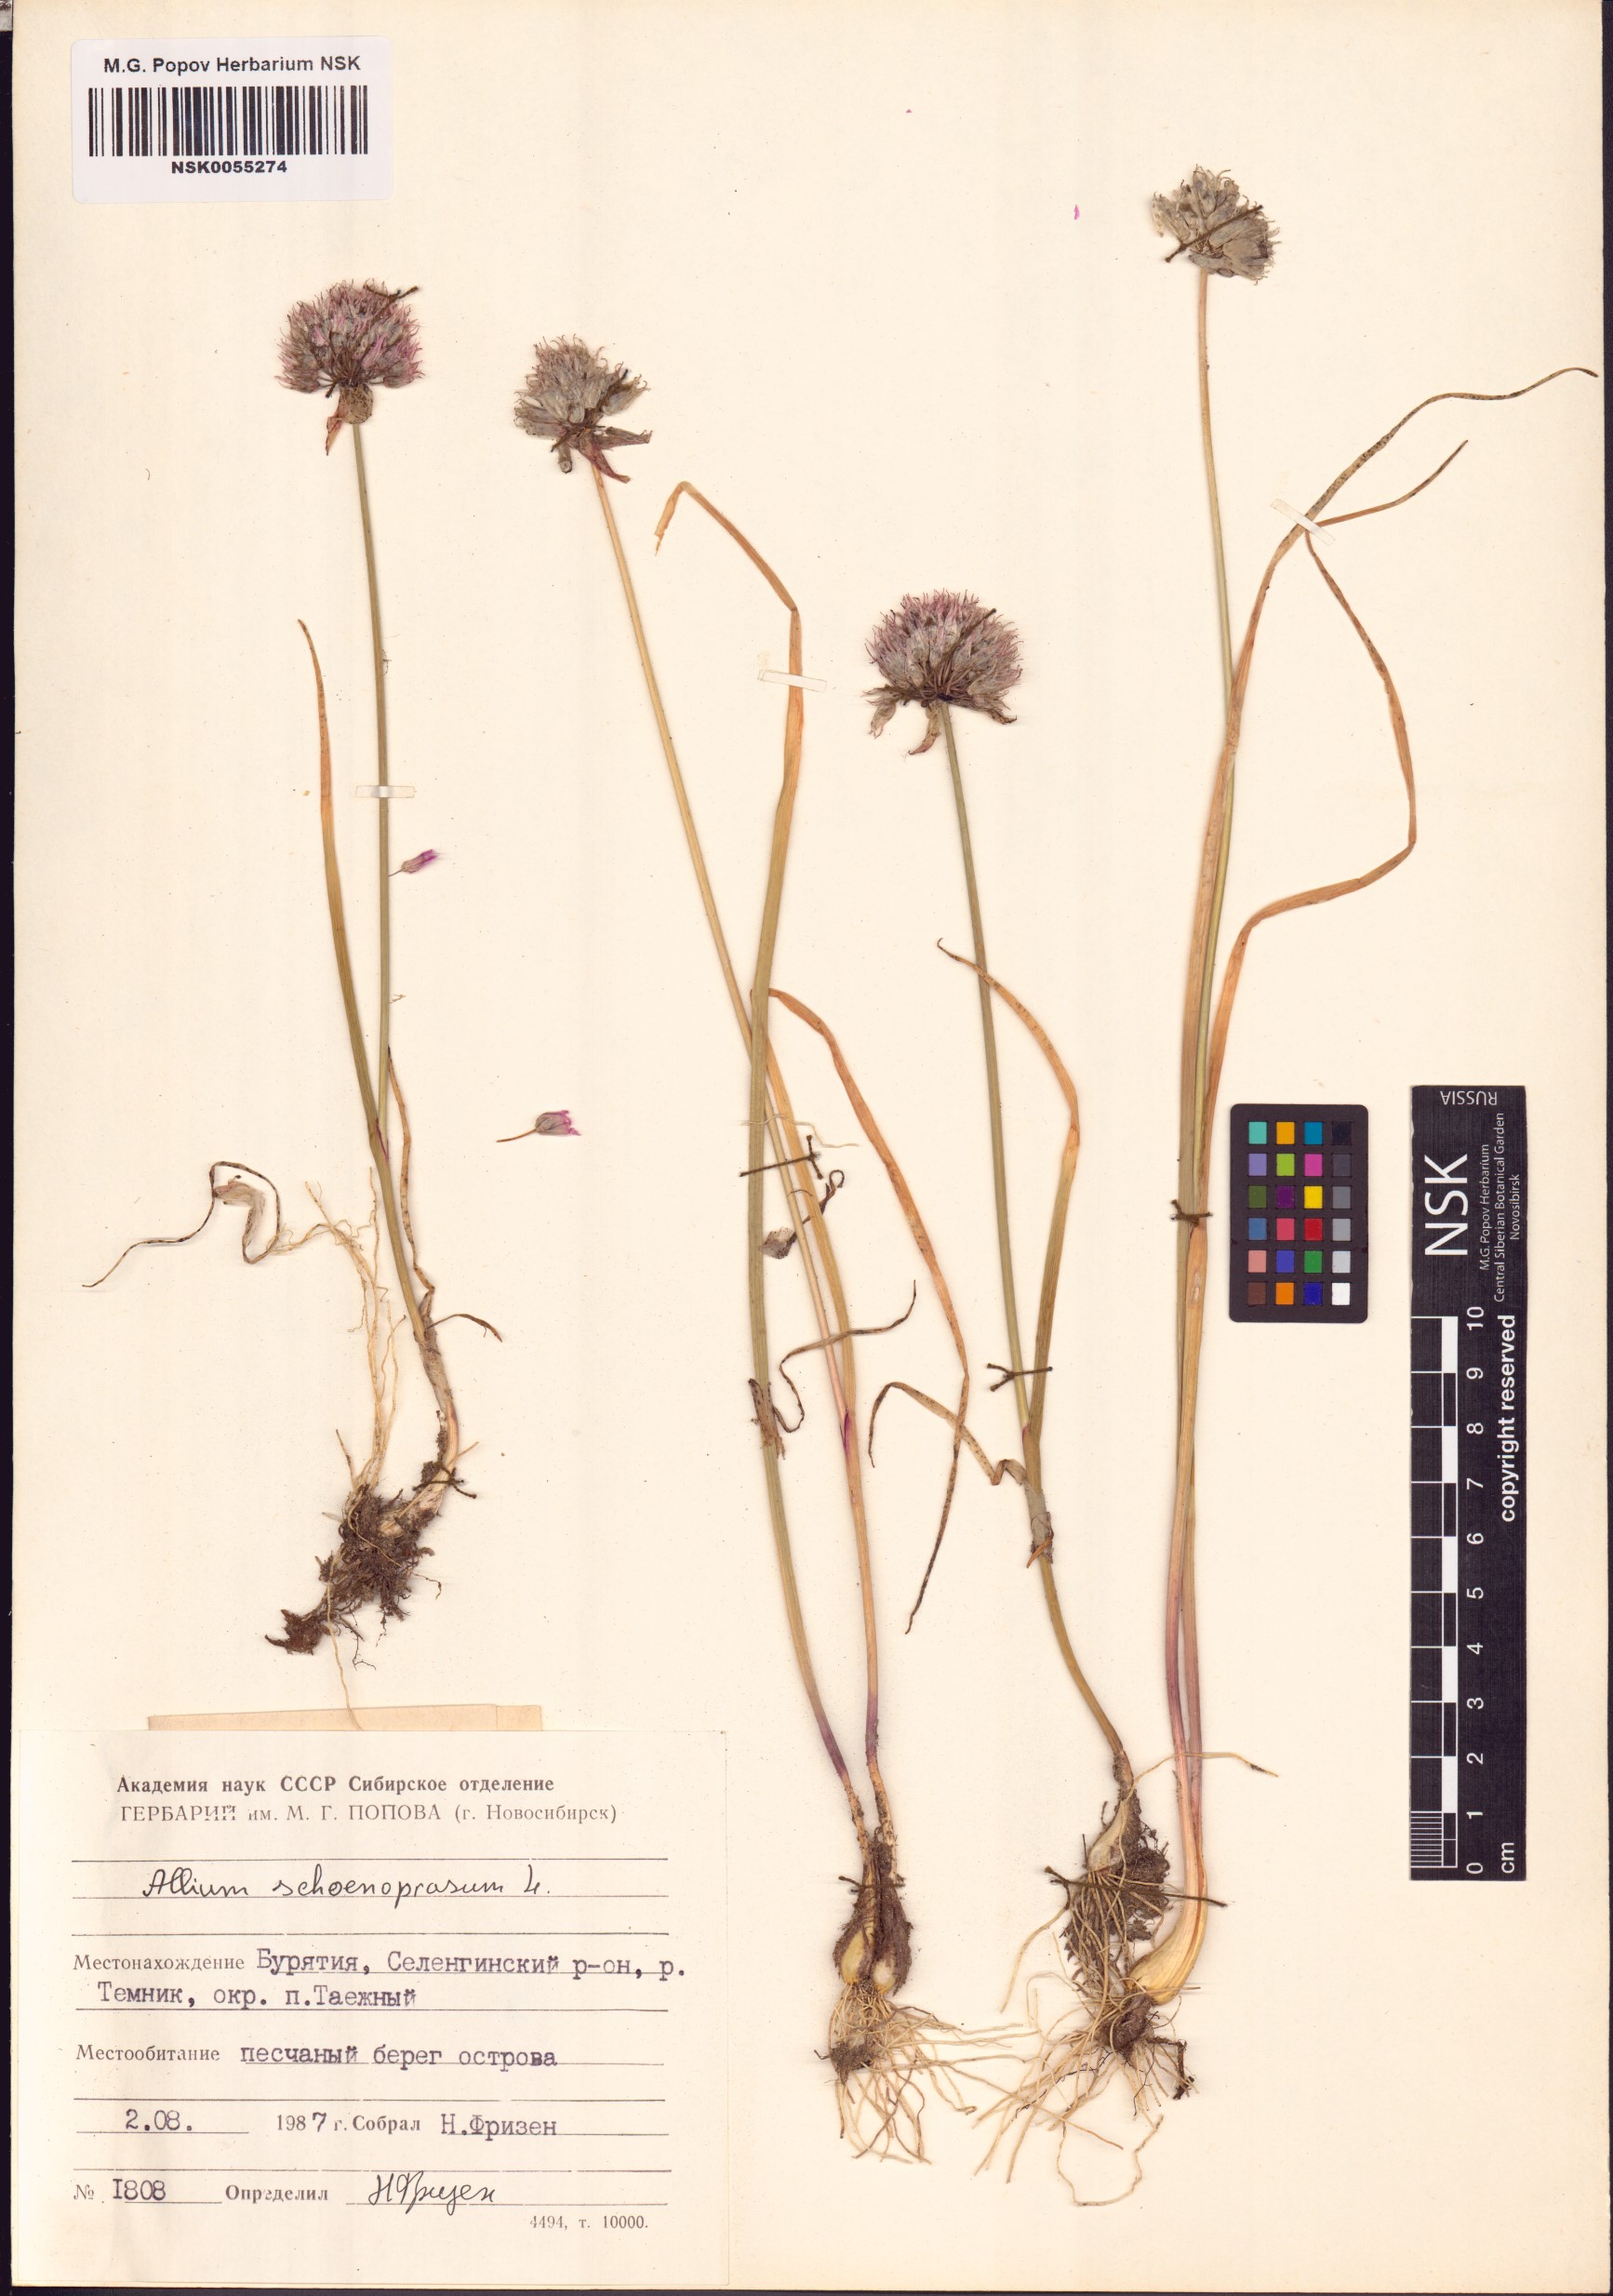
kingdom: Plantae
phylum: Tracheophyta
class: Liliopsida
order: Asparagales
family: Amaryllidaceae
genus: Allium
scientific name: Allium schoenoprasum
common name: Chives
